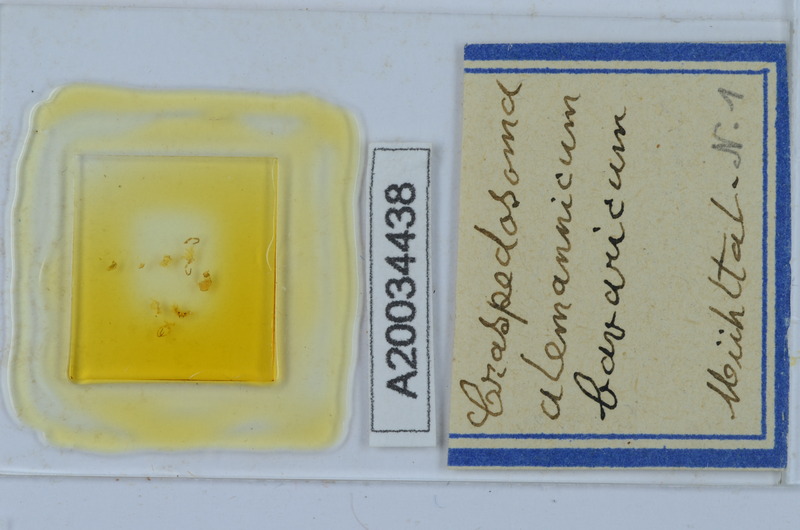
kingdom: Animalia
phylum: Arthropoda
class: Diplopoda
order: Chordeumatida
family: Craspedosomatidae
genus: Craspedosoma
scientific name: Craspedosoma alemannicum
